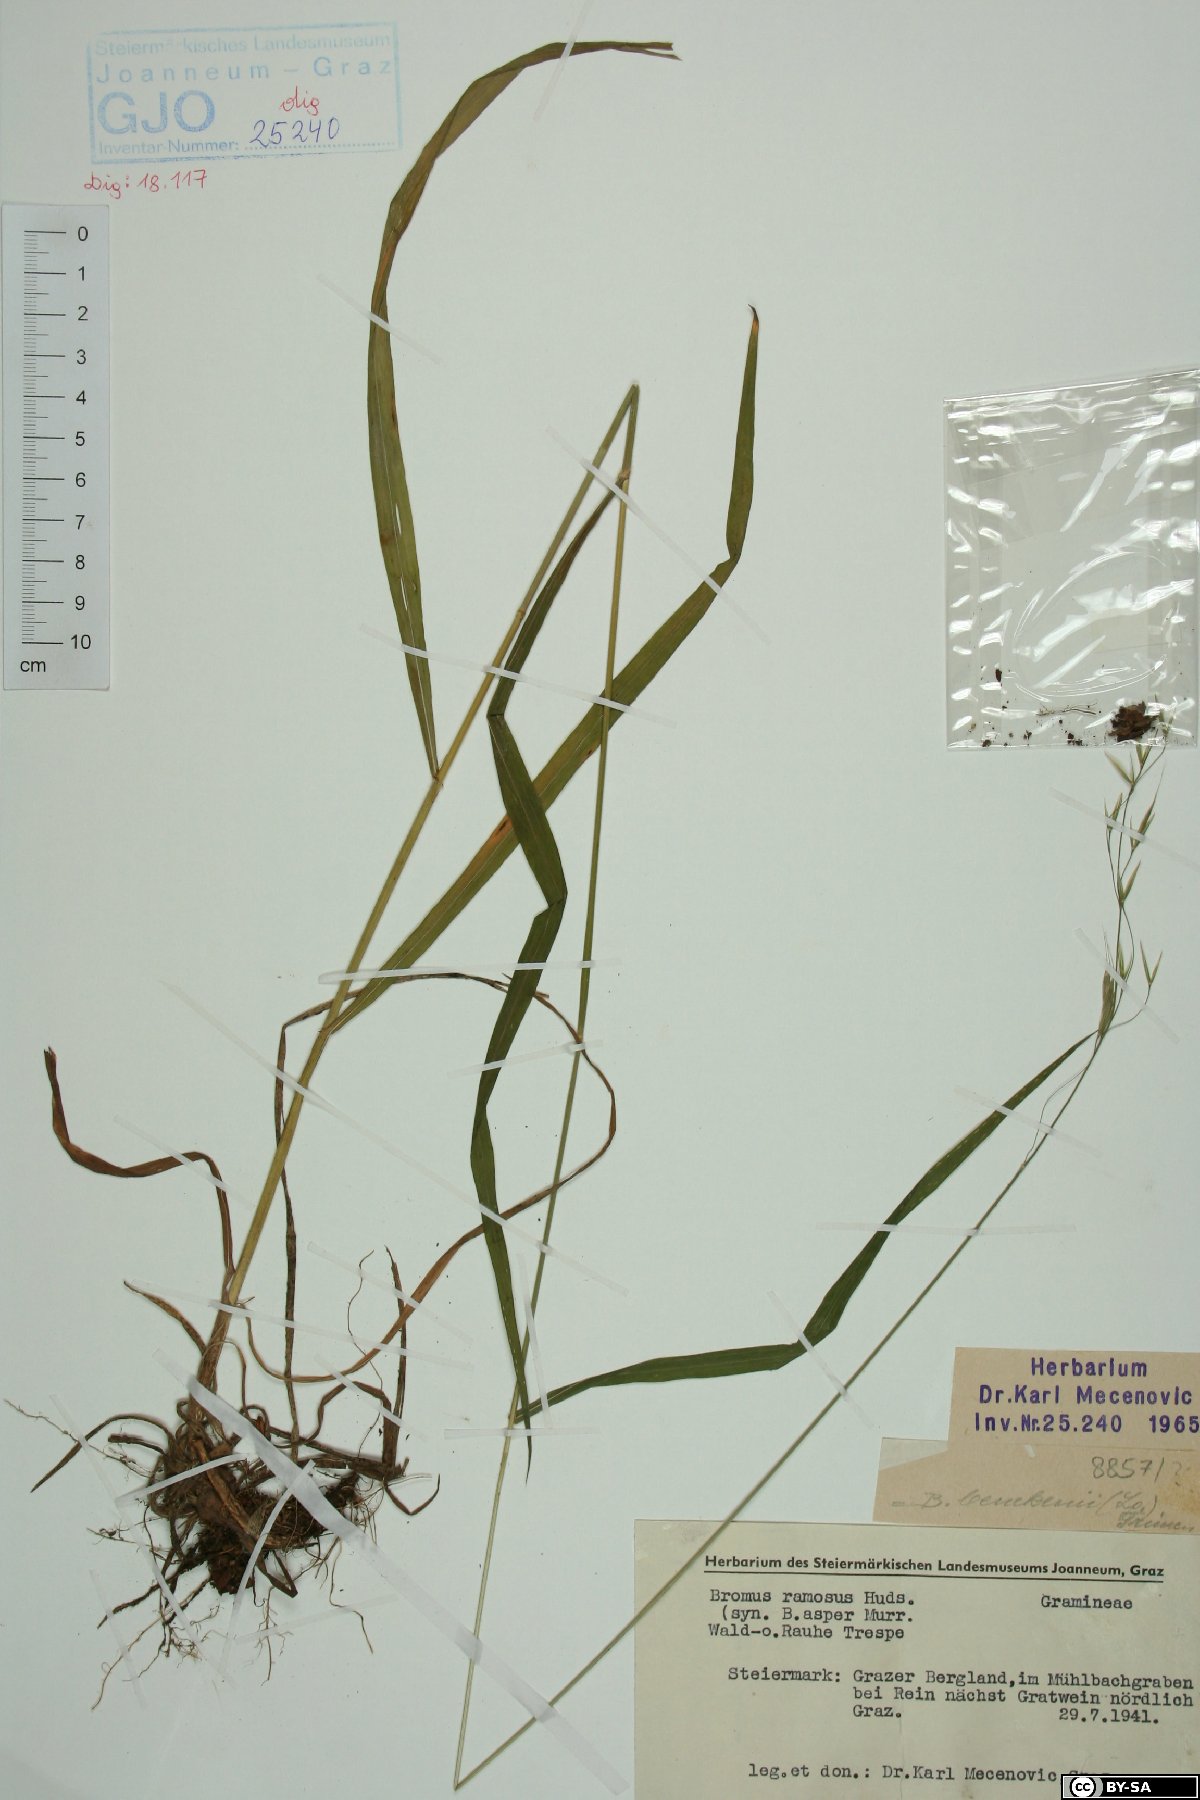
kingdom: Plantae
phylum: Tracheophyta
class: Liliopsida
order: Poales
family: Poaceae
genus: Bromus
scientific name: Bromus ramosus
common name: Hairy brome
